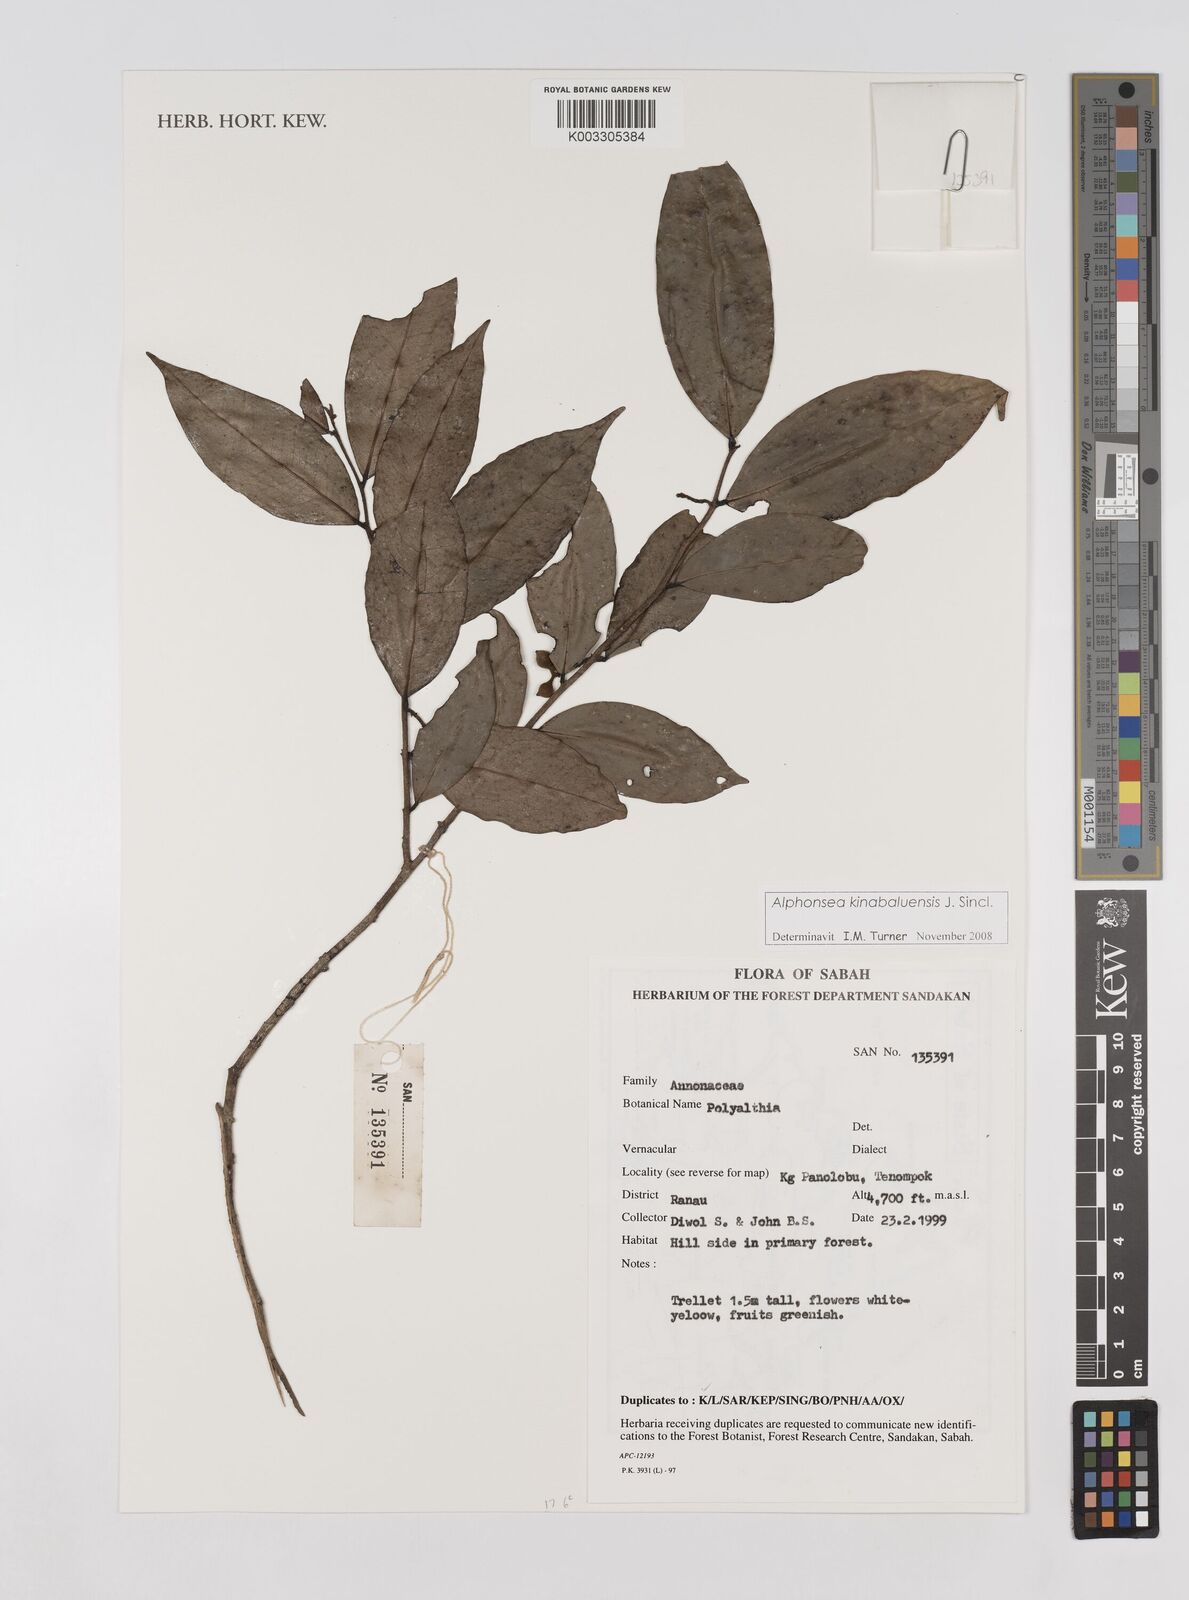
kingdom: Plantae
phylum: Tracheophyta
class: Magnoliopsida
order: Magnoliales
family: Annonaceae
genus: Alphonsea
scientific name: Alphonsea kinabaluensis
